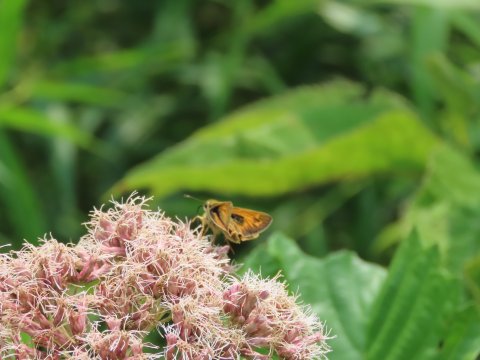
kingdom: Animalia
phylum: Arthropoda
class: Insecta
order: Lepidoptera
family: Hesperiidae
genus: Atalopedes
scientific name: Atalopedes campestris
